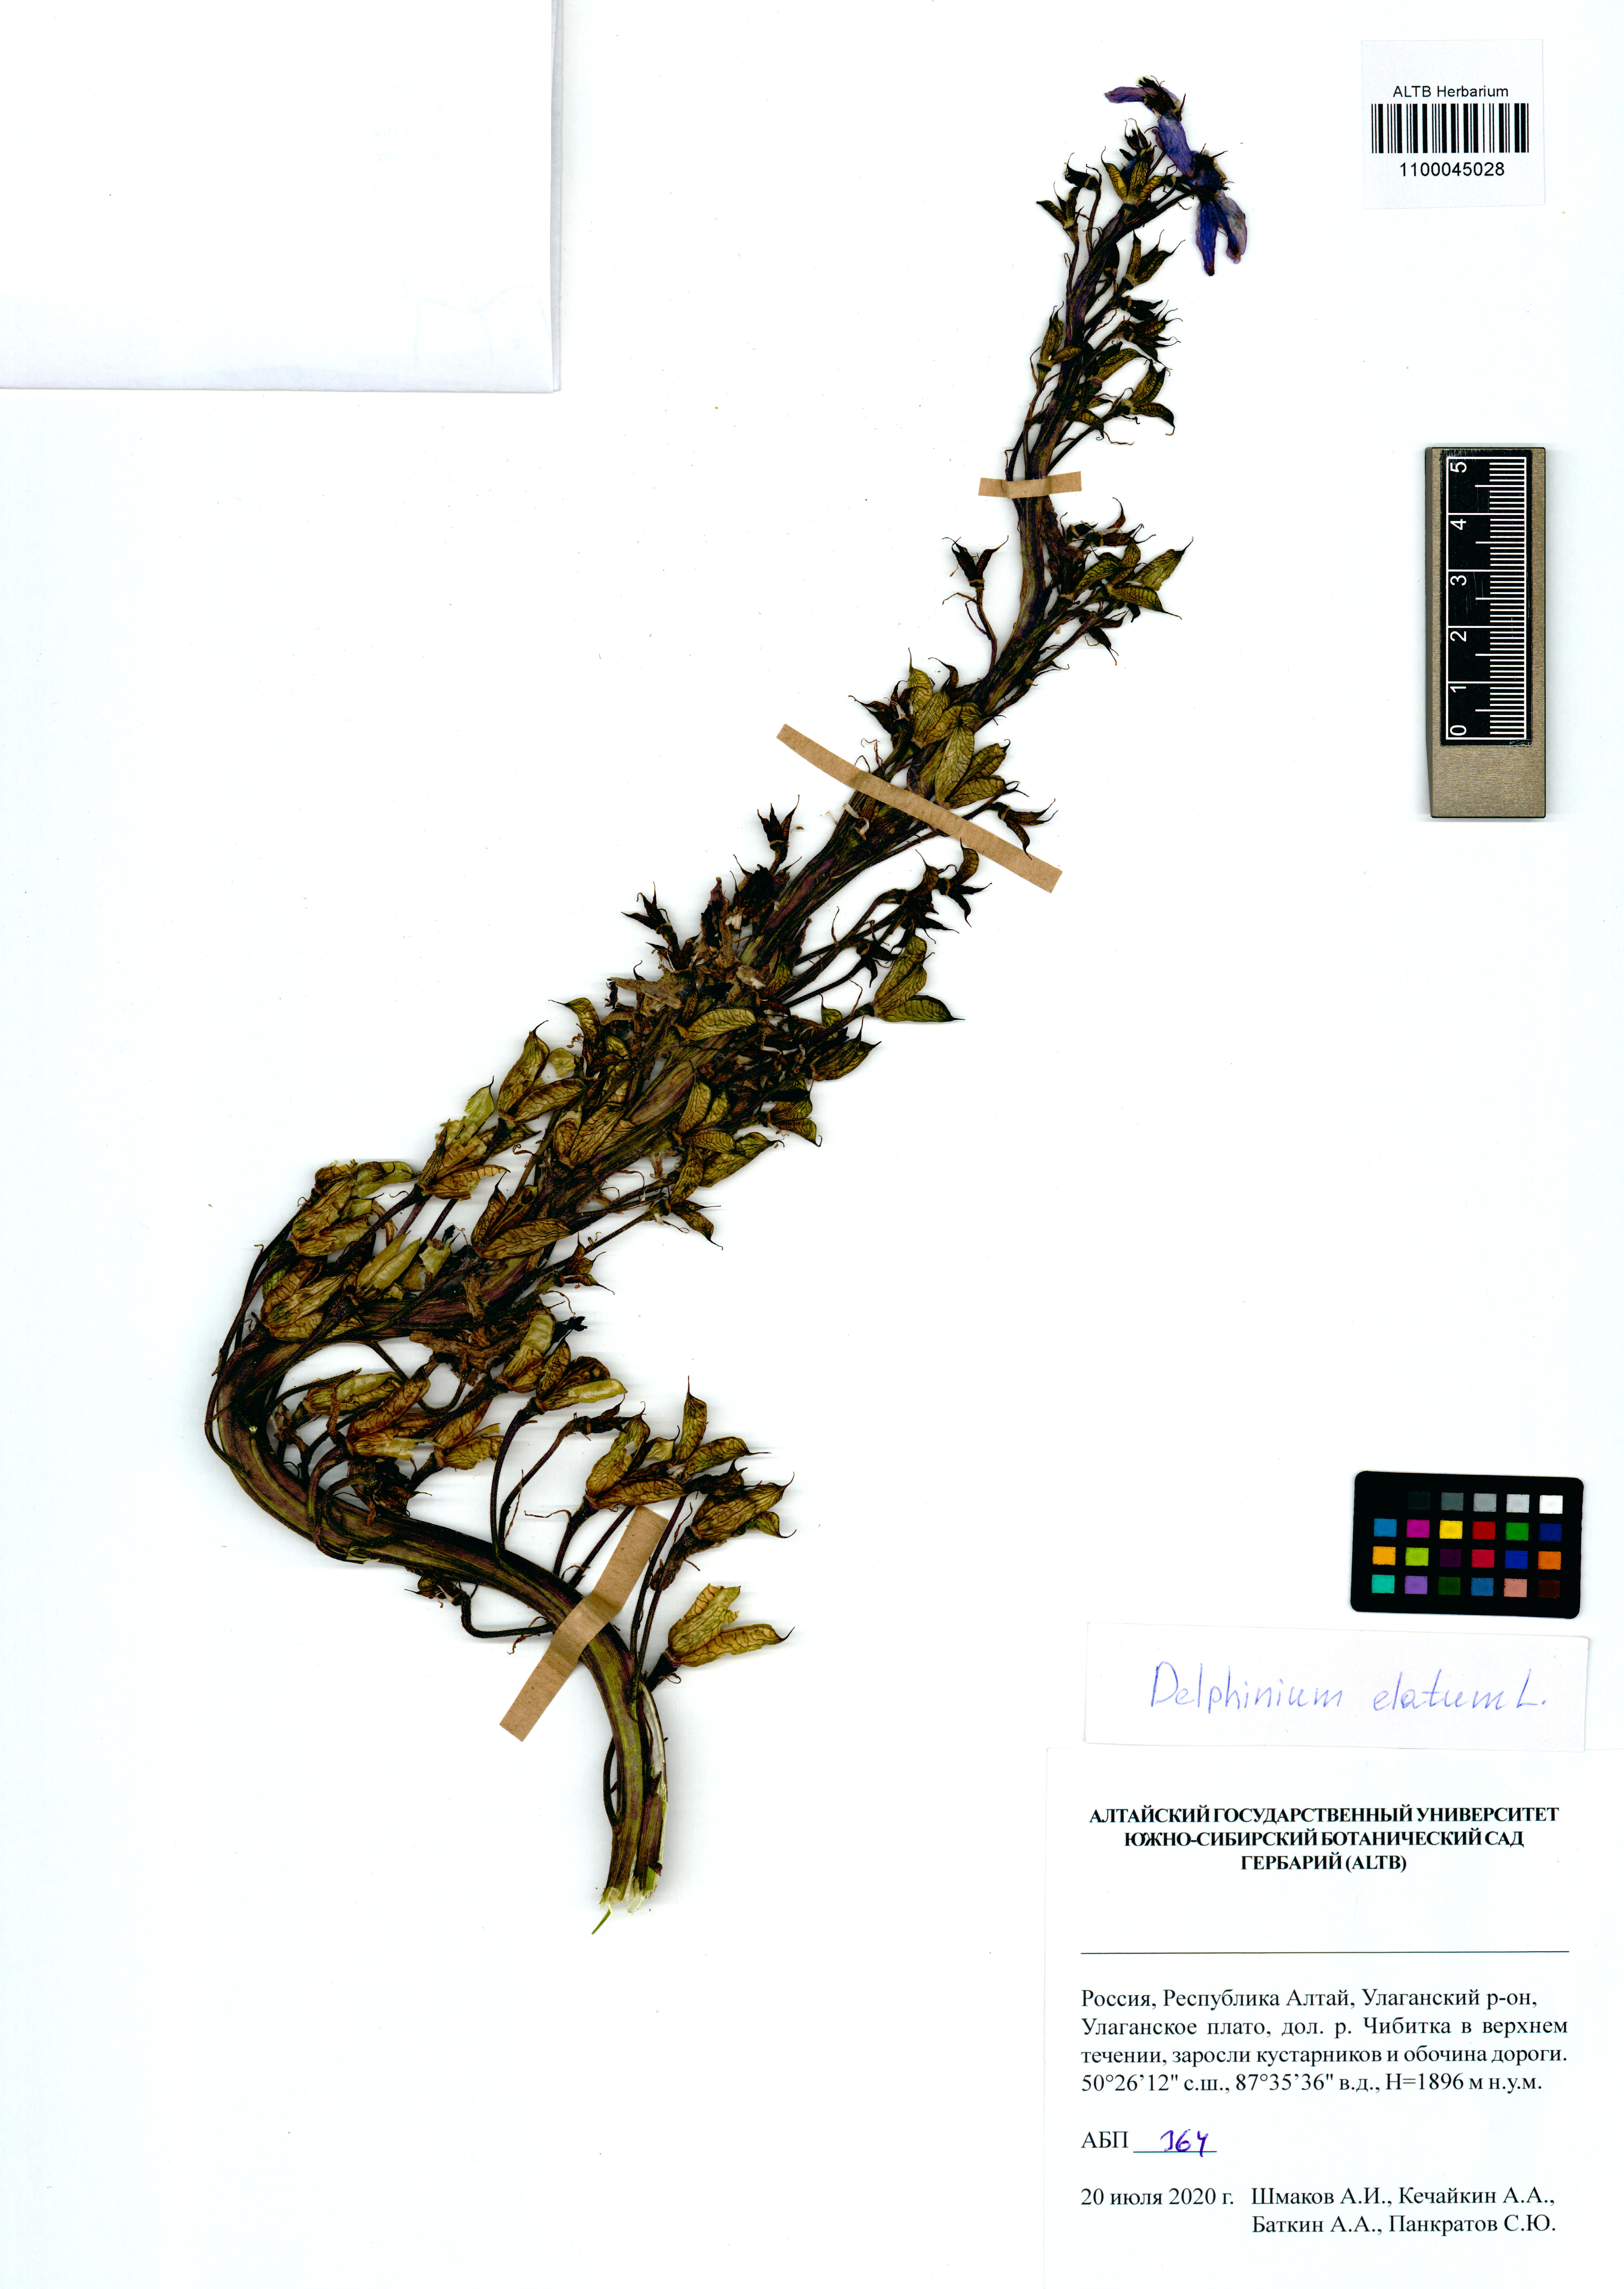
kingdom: Plantae
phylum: Tracheophyta
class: Magnoliopsida
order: Ranunculales
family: Ranunculaceae
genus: Delphinium
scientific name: Delphinium elatum
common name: Candle larkspur
